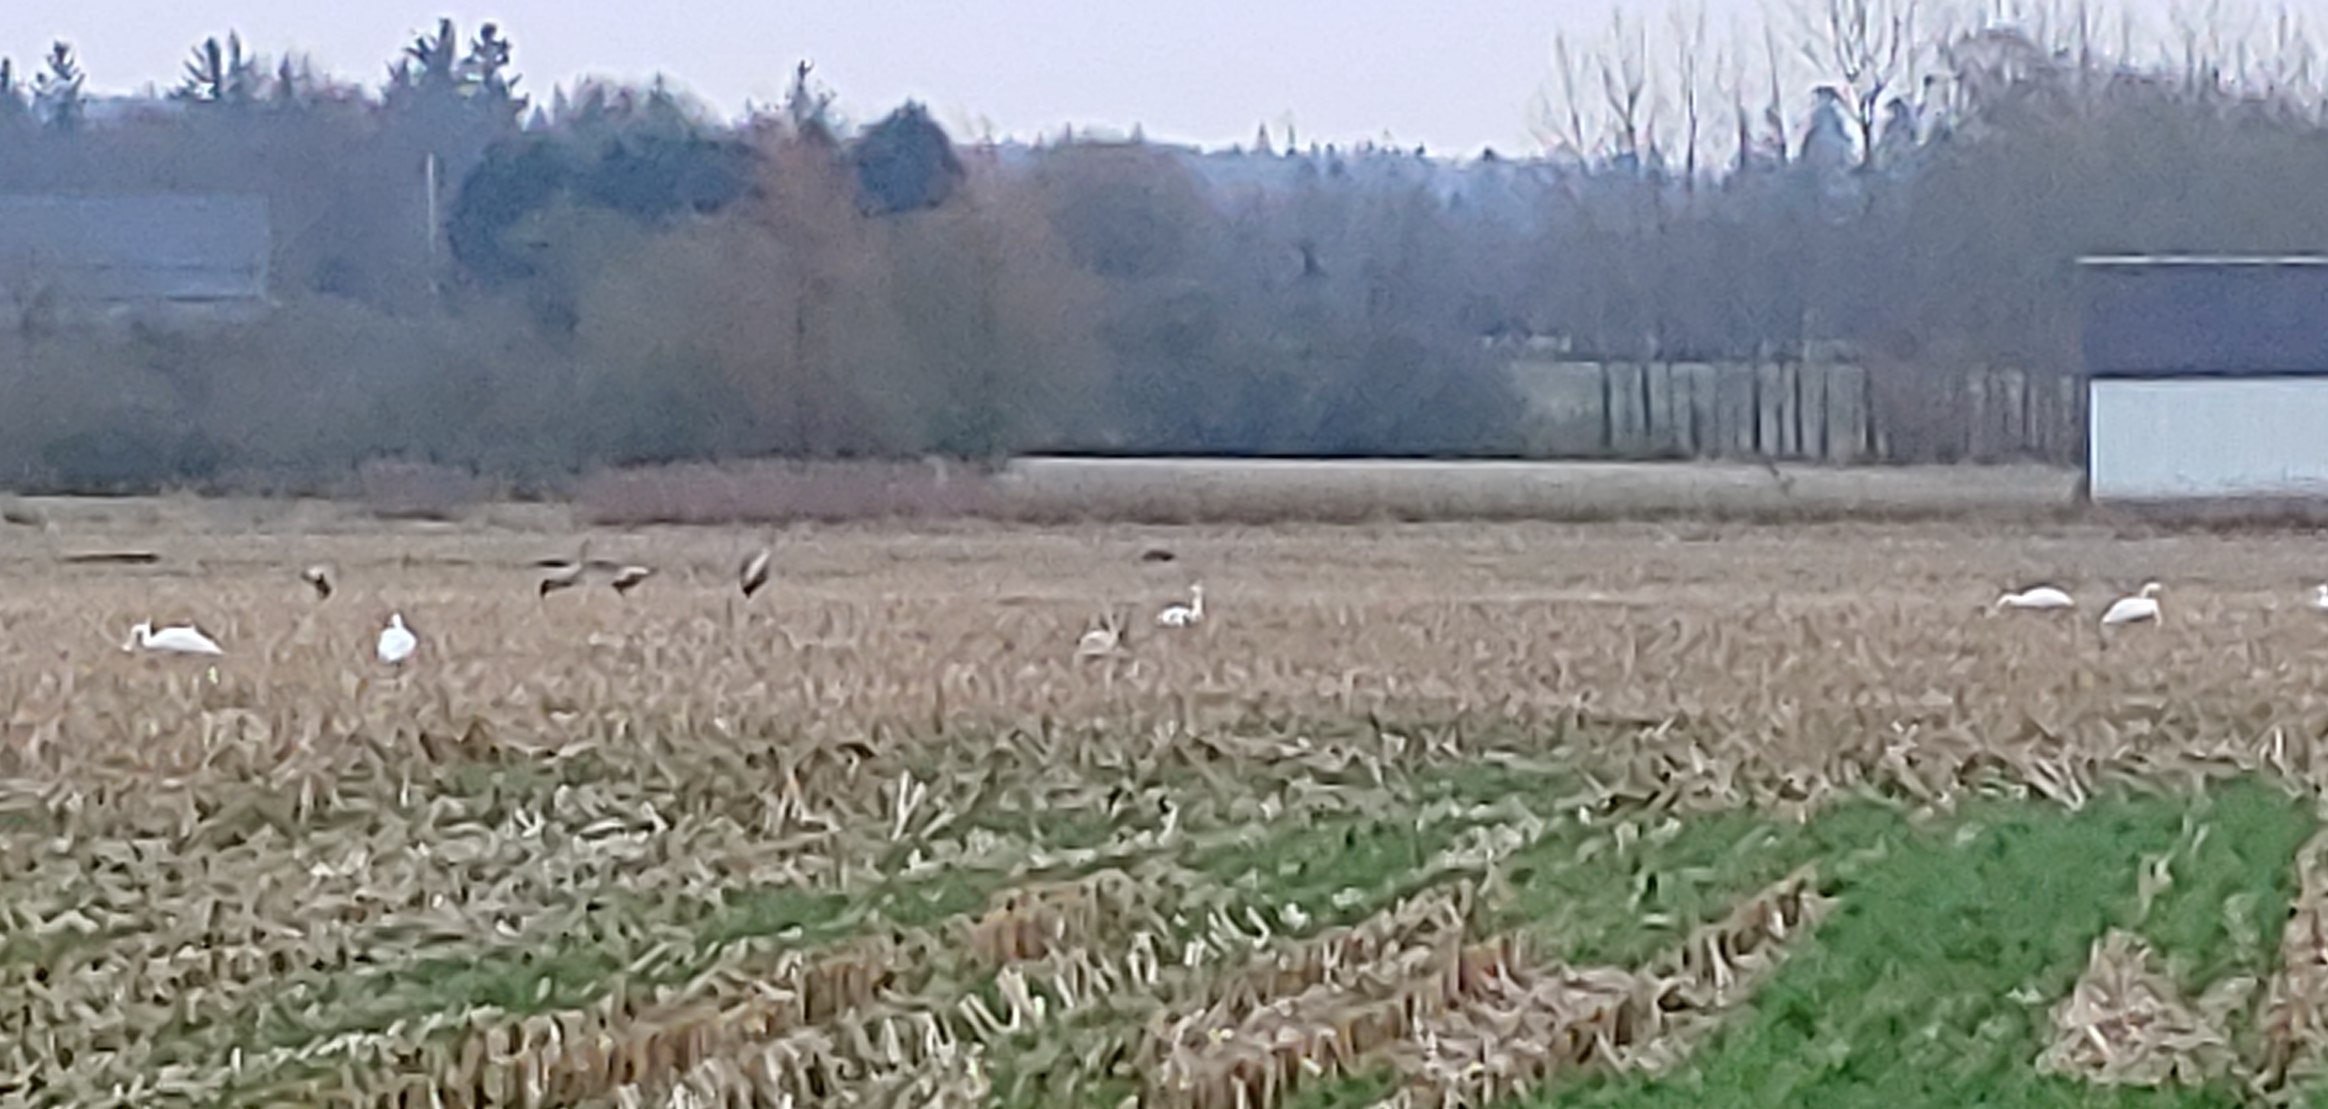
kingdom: Animalia
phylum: Chordata
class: Aves
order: Gruiformes
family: Gruidae
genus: Grus
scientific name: Grus grus
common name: Trane
